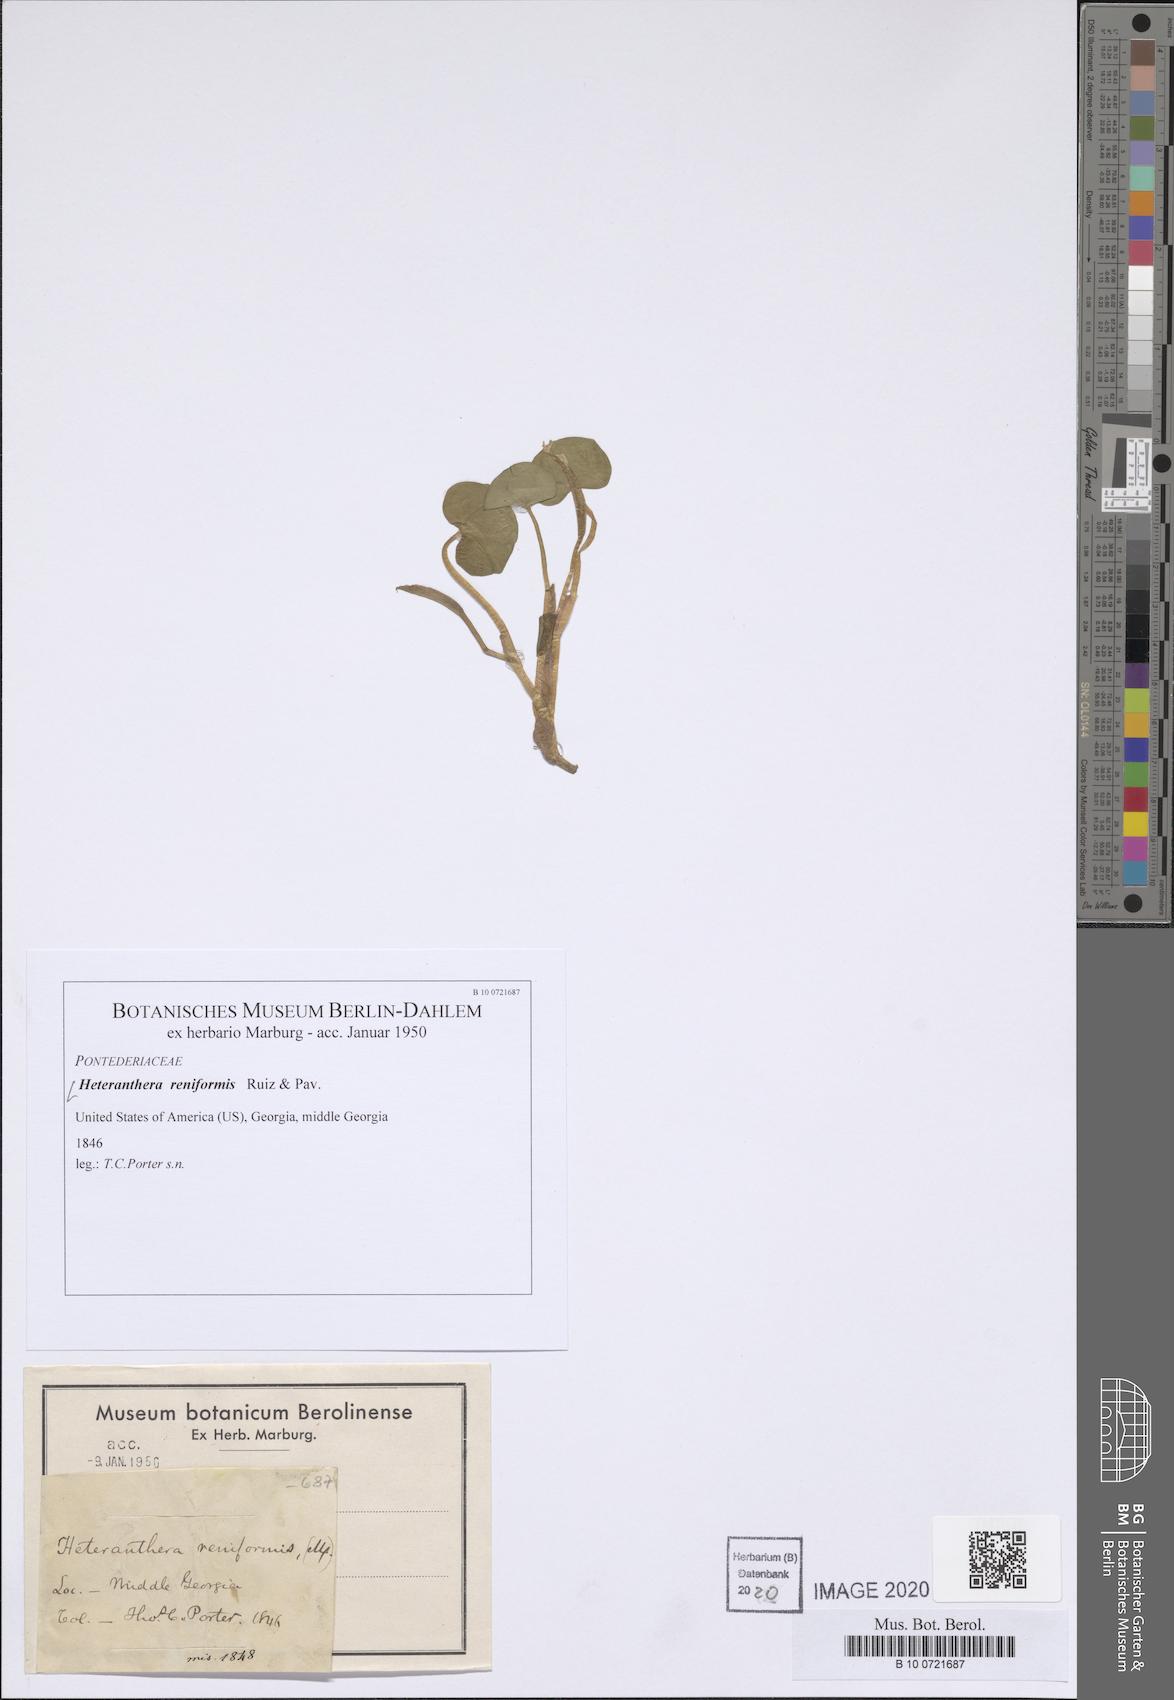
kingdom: Plantae
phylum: Tracheophyta
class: Liliopsida
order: Commelinales
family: Pontederiaceae
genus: Heteranthera
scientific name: Heteranthera reniformis
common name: Kidneyleaf mudplantain
